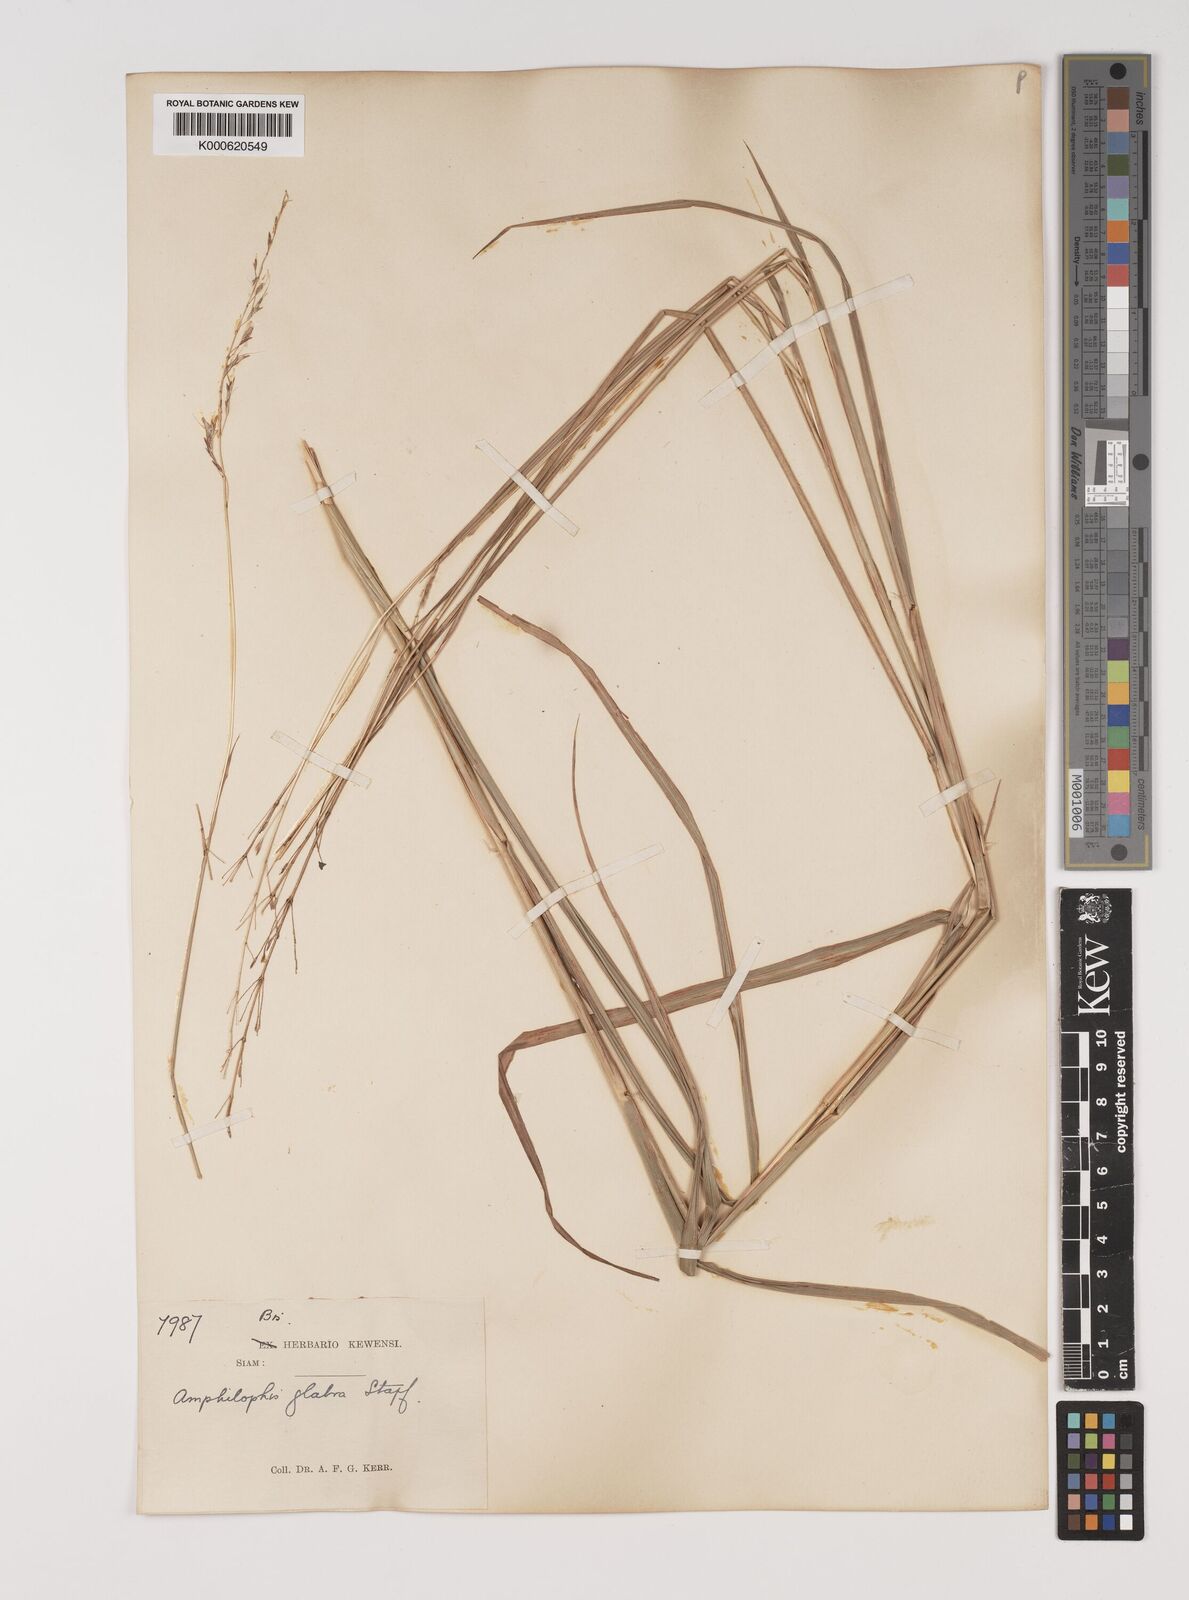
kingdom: Plantae
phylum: Tracheophyta
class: Liliopsida
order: Poales
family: Poaceae
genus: Bothriochloa
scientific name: Bothriochloa bladhii
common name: Caucasian bluestem
